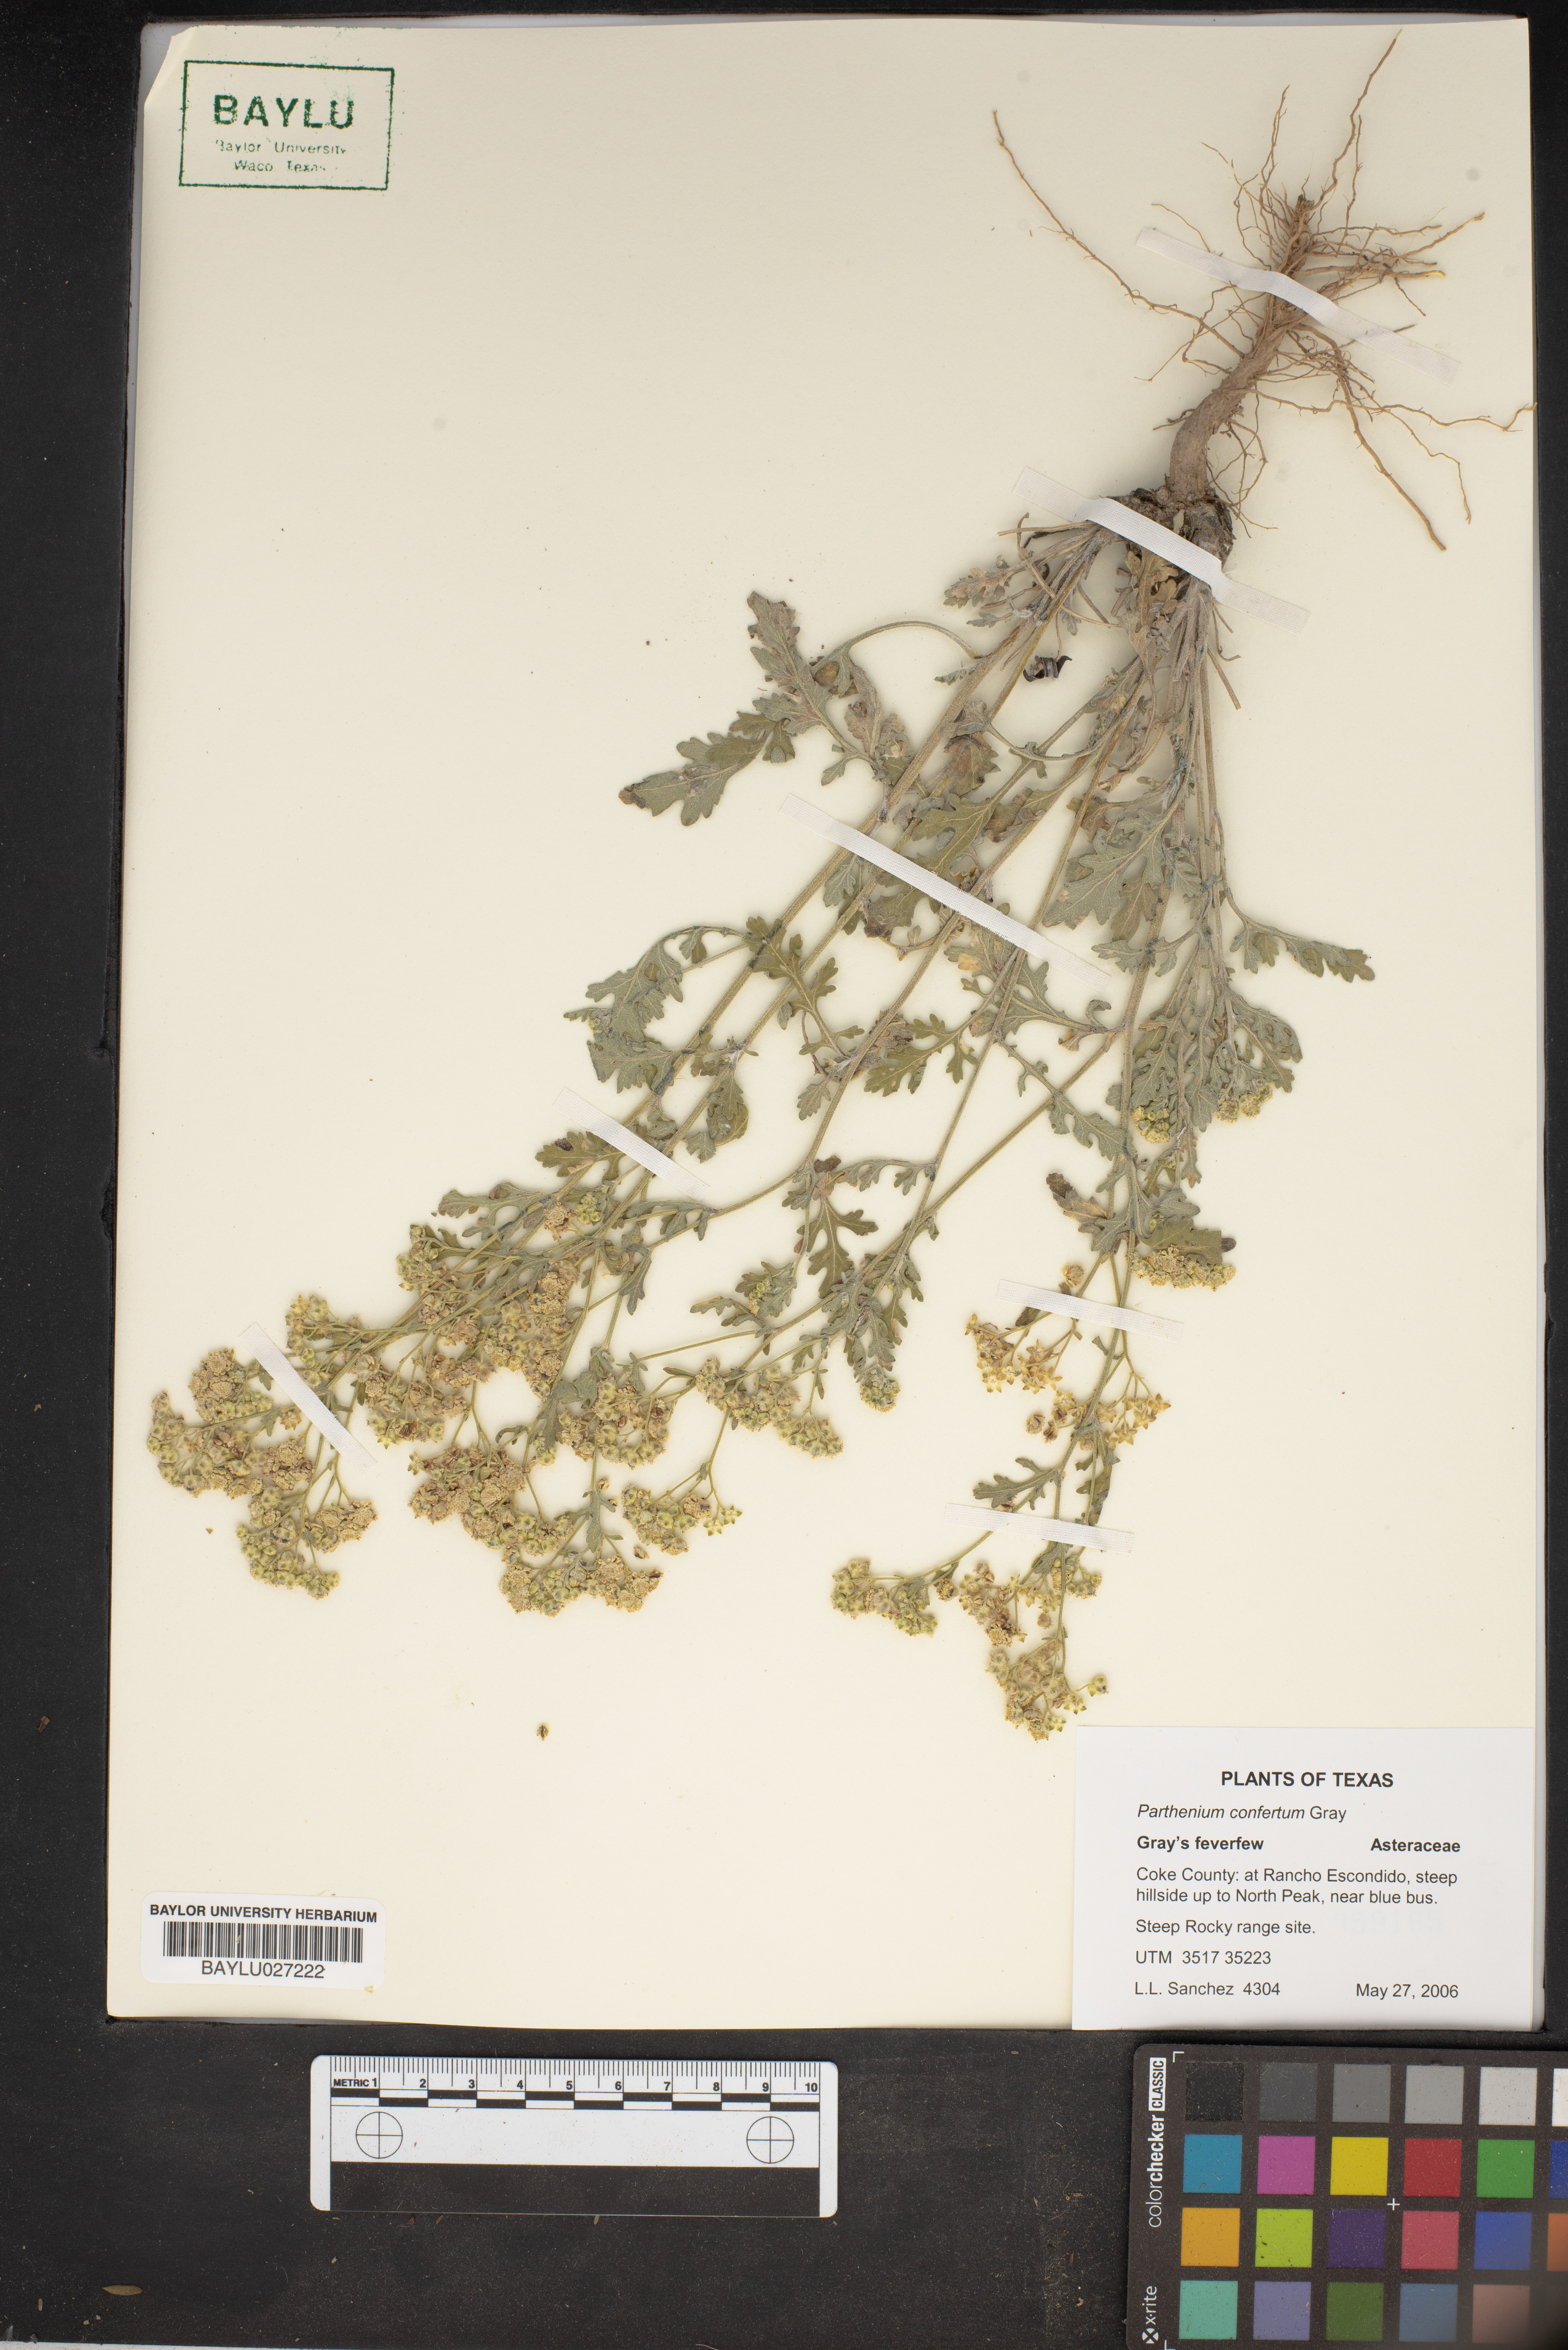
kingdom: Plantae
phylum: Tracheophyta
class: Magnoliopsida
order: Asterales
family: Asteraceae
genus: Parthenium
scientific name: Parthenium confertum
